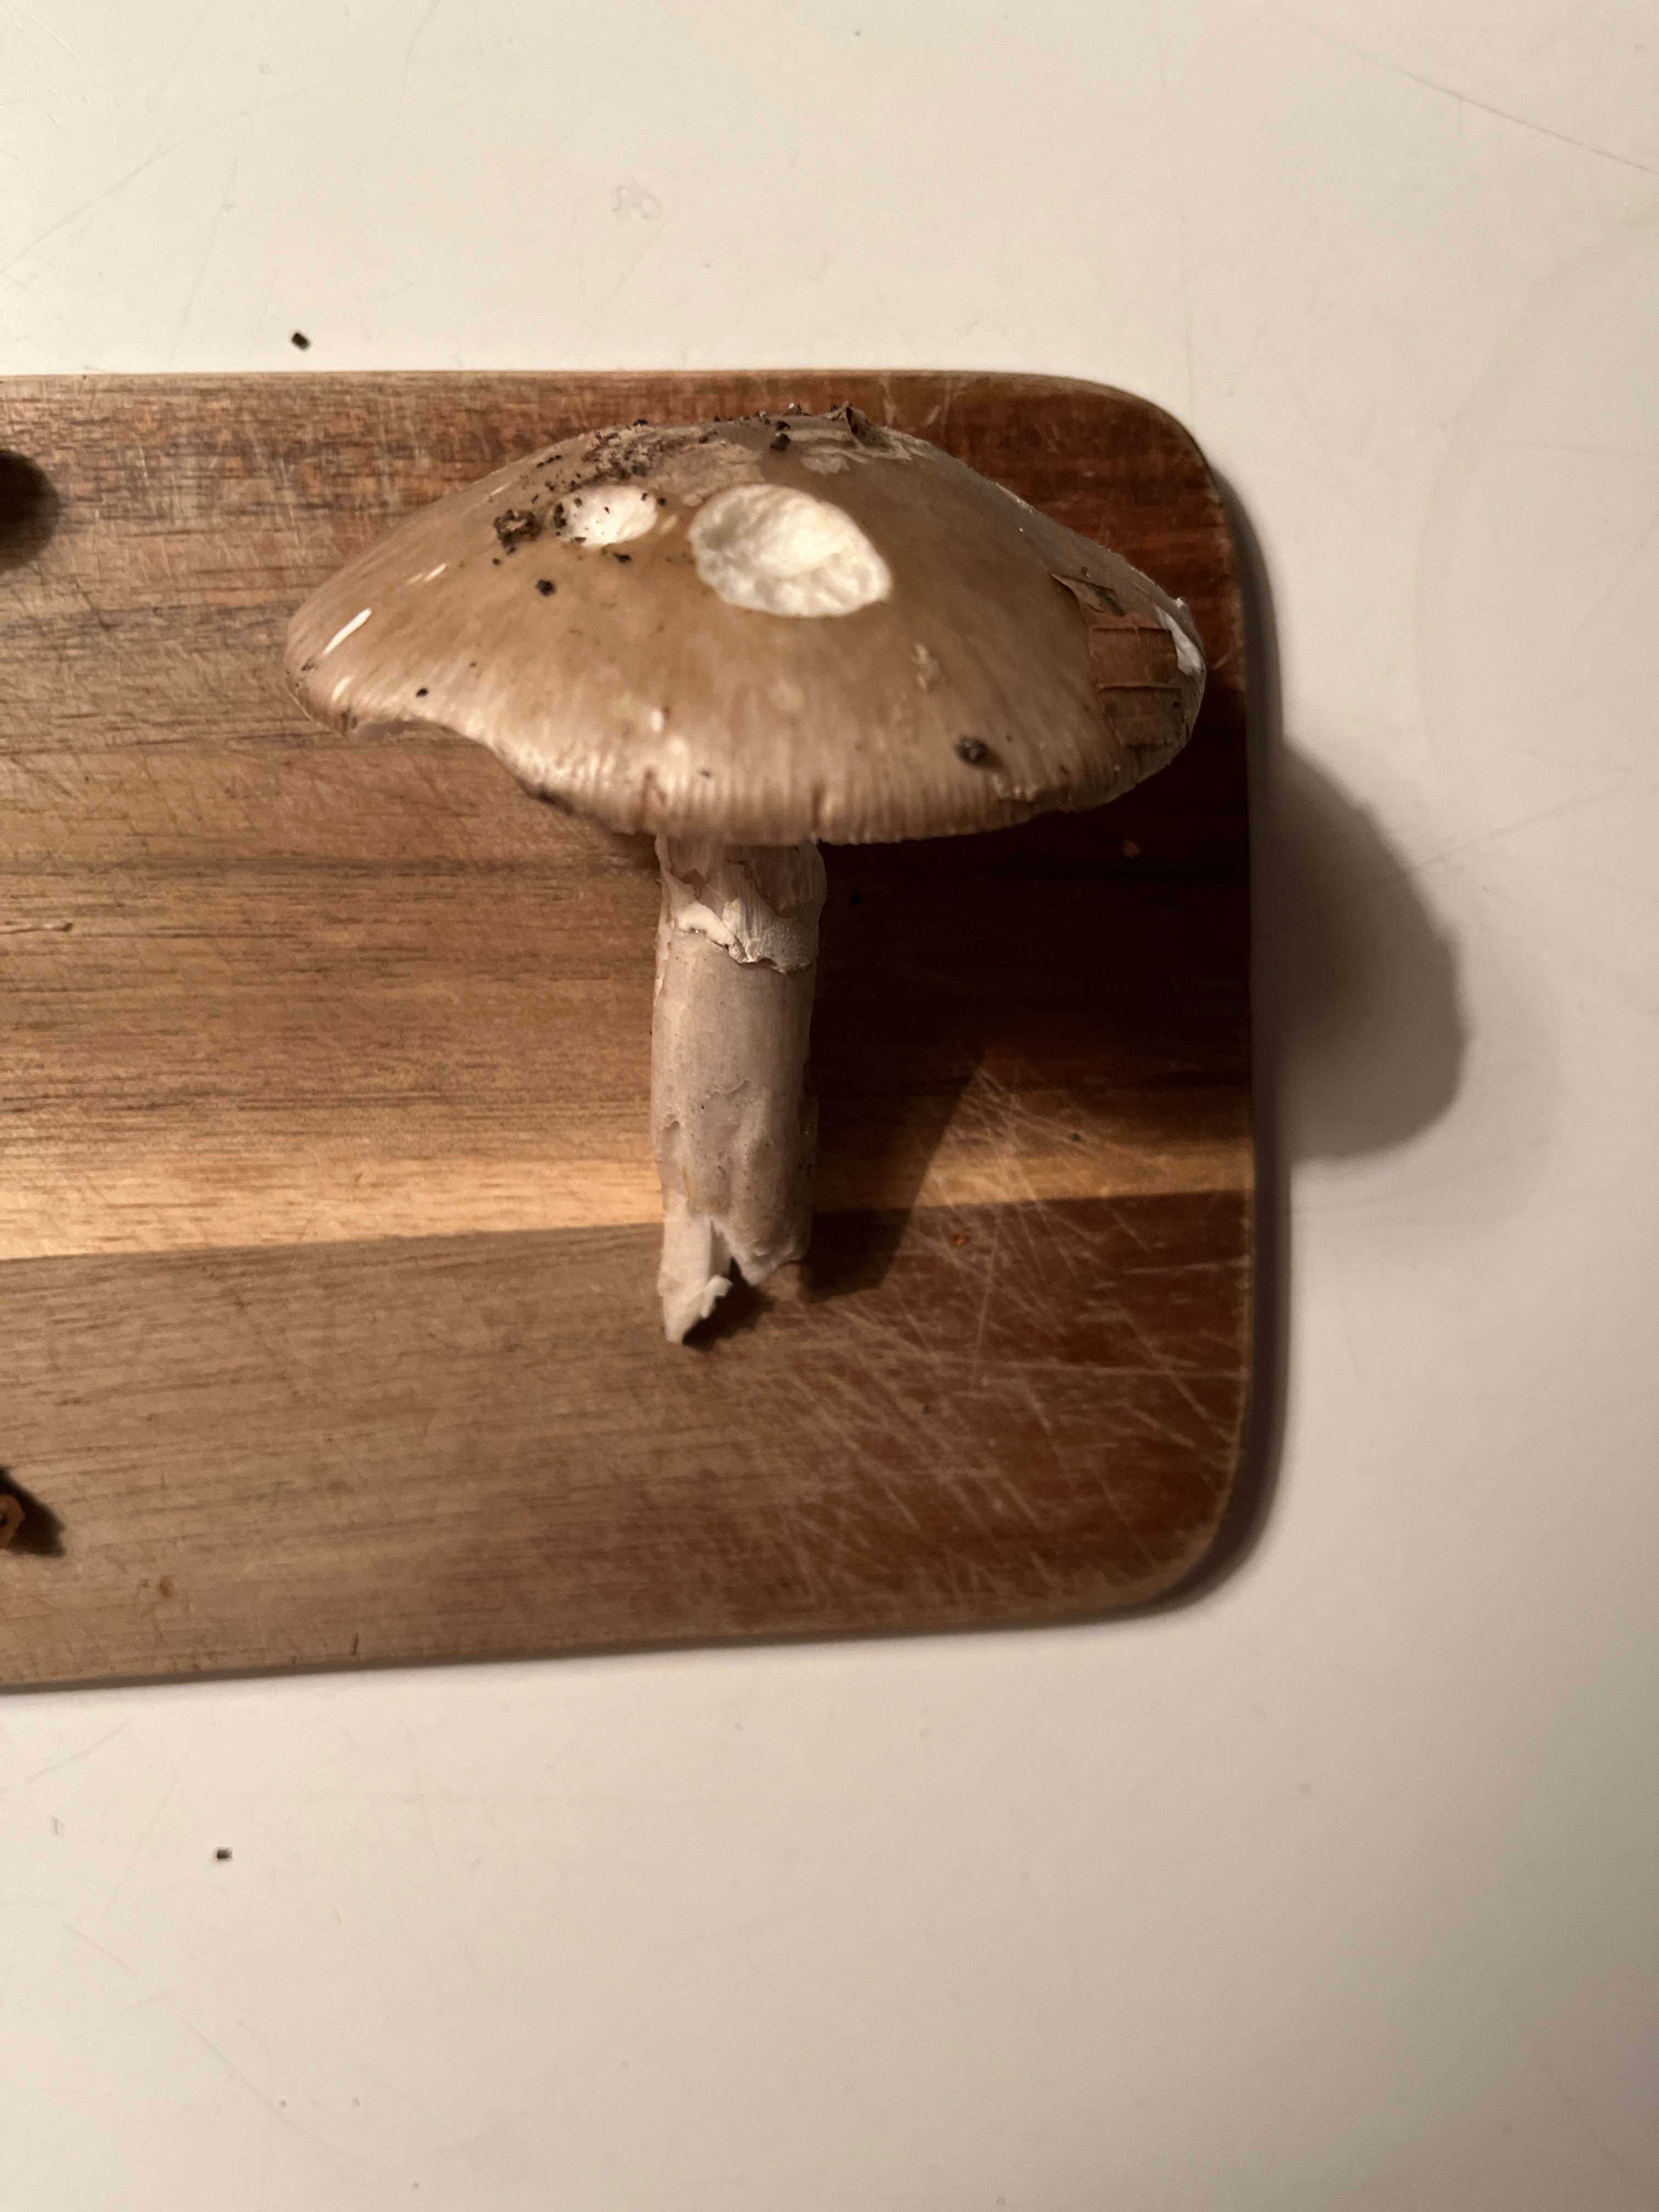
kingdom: Fungi
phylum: Basidiomycota
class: Agaricomycetes
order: Agaricales
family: Amanitaceae
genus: Amanita
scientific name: Amanita
